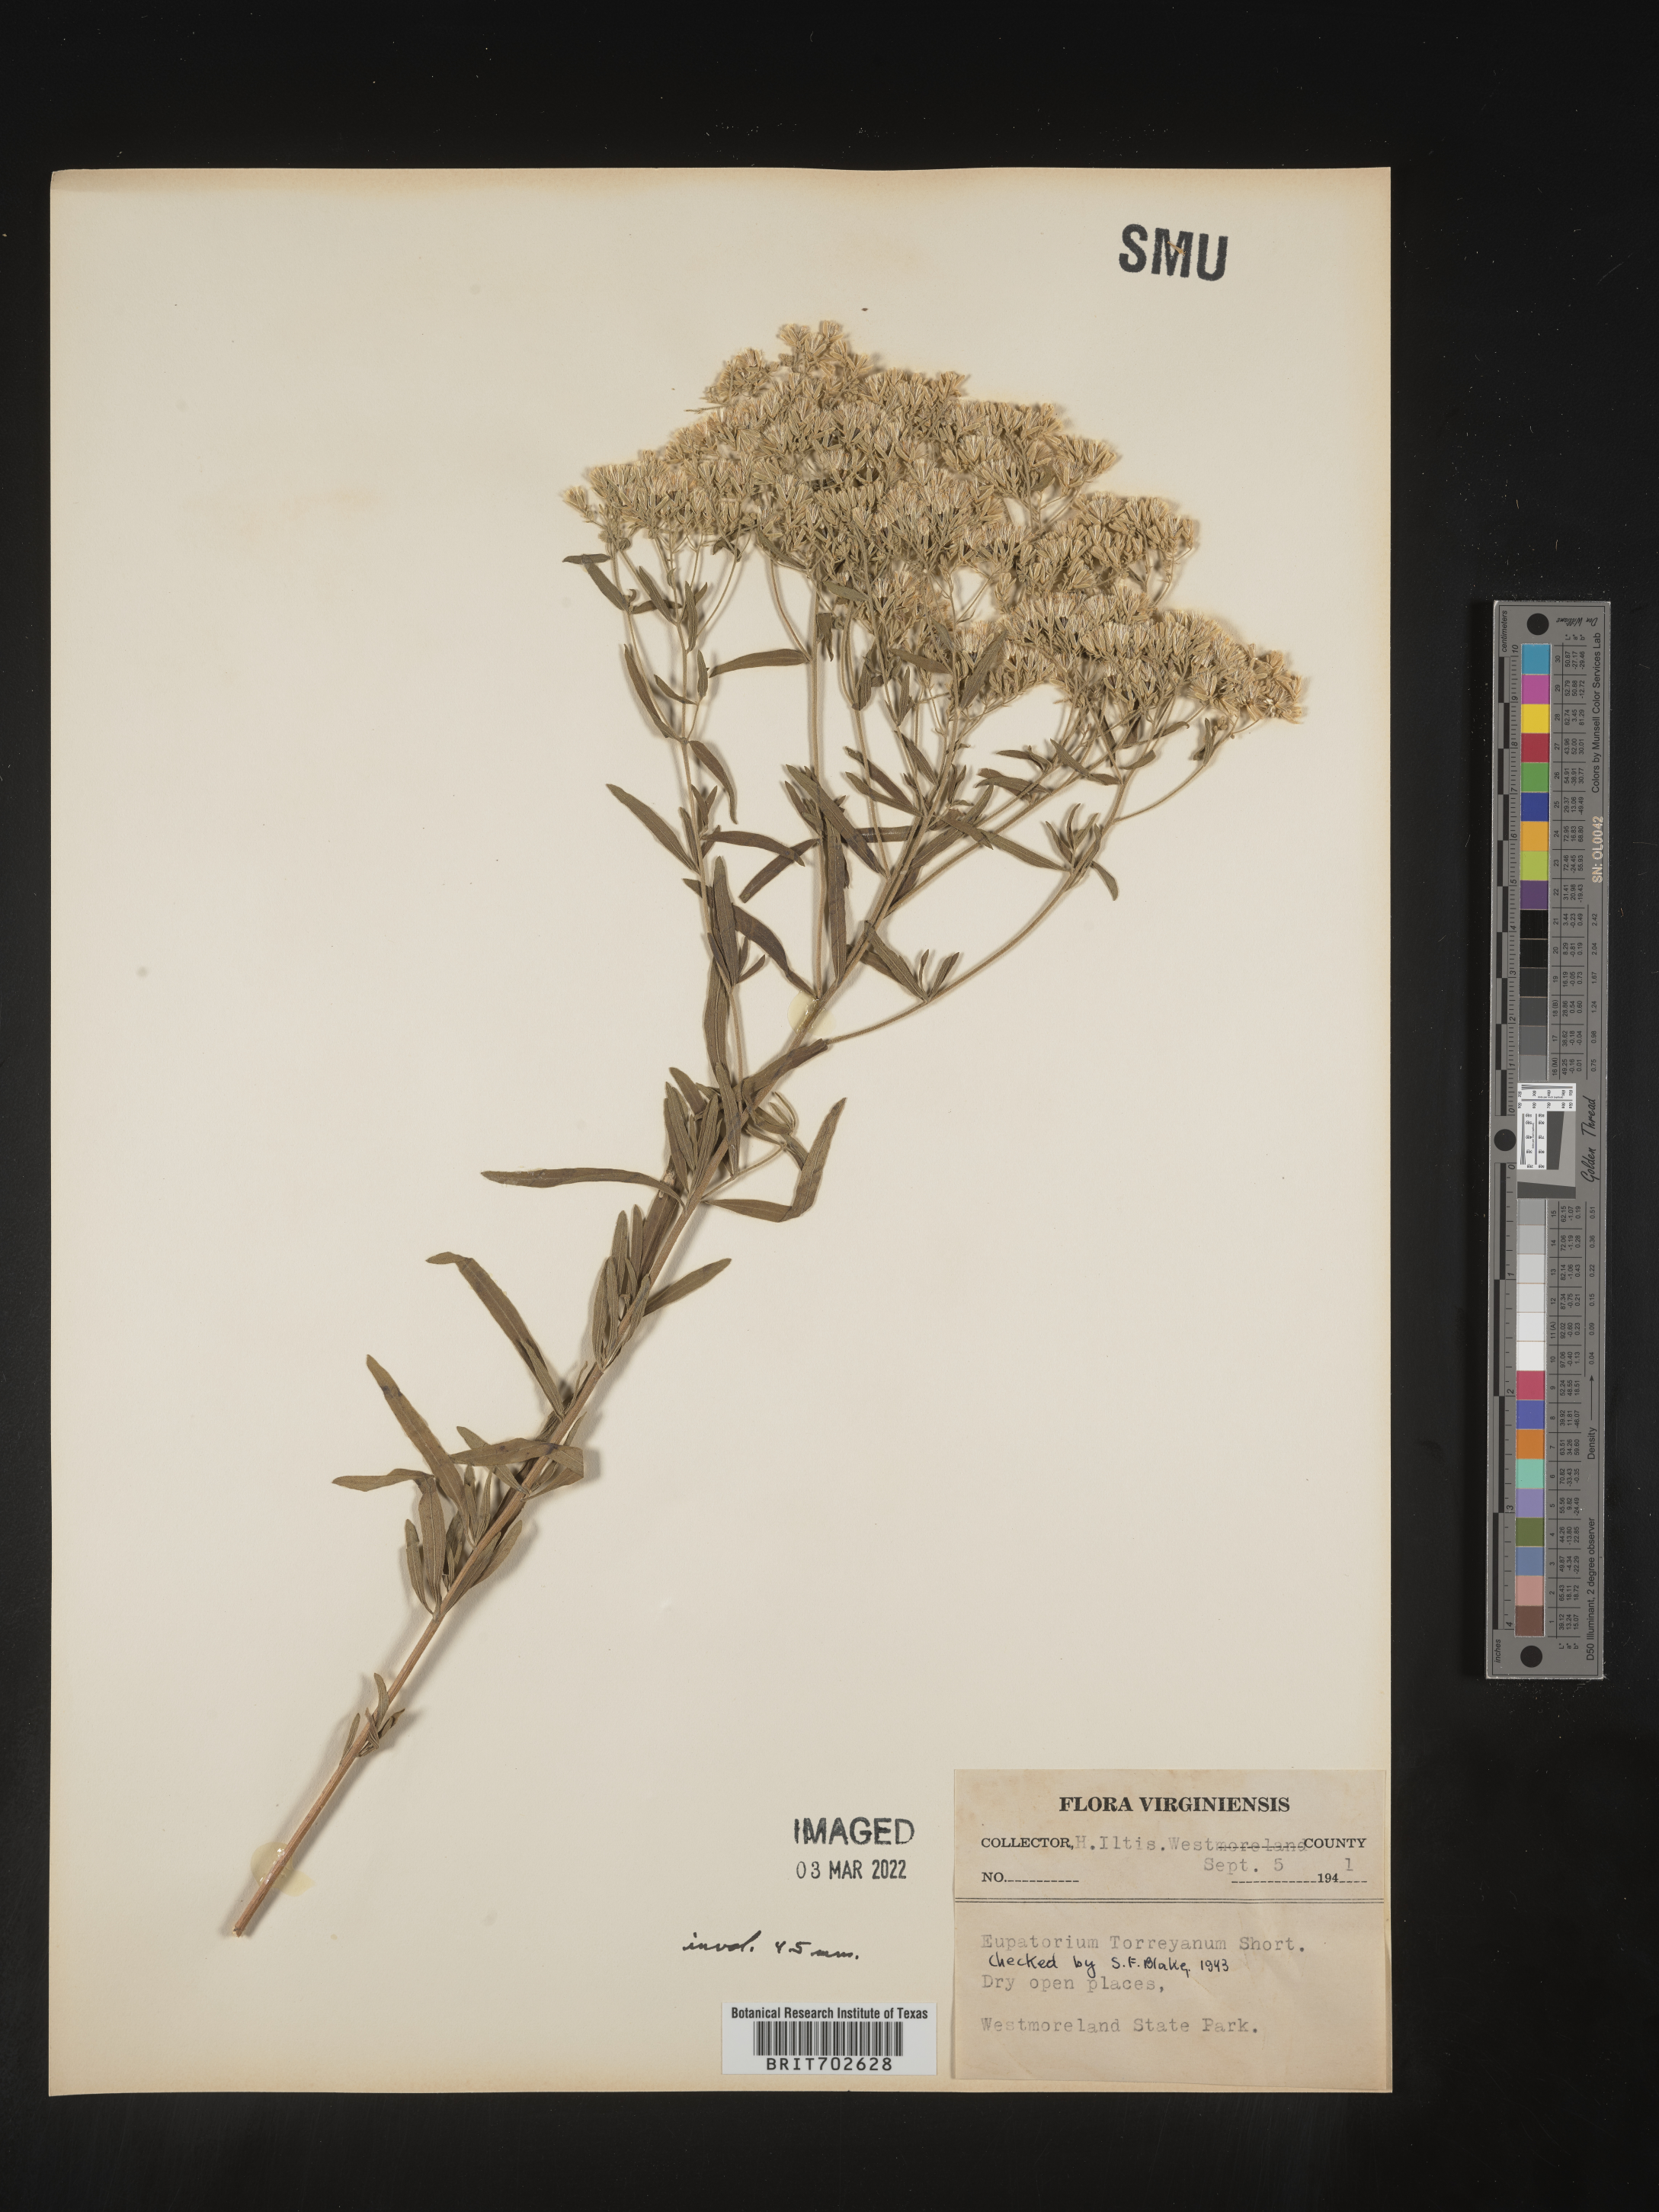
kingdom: Plantae
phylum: Tracheophyta
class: Magnoliopsida
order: Asterales
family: Asteraceae
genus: Eupatorium
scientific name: Eupatorium torreyanum
